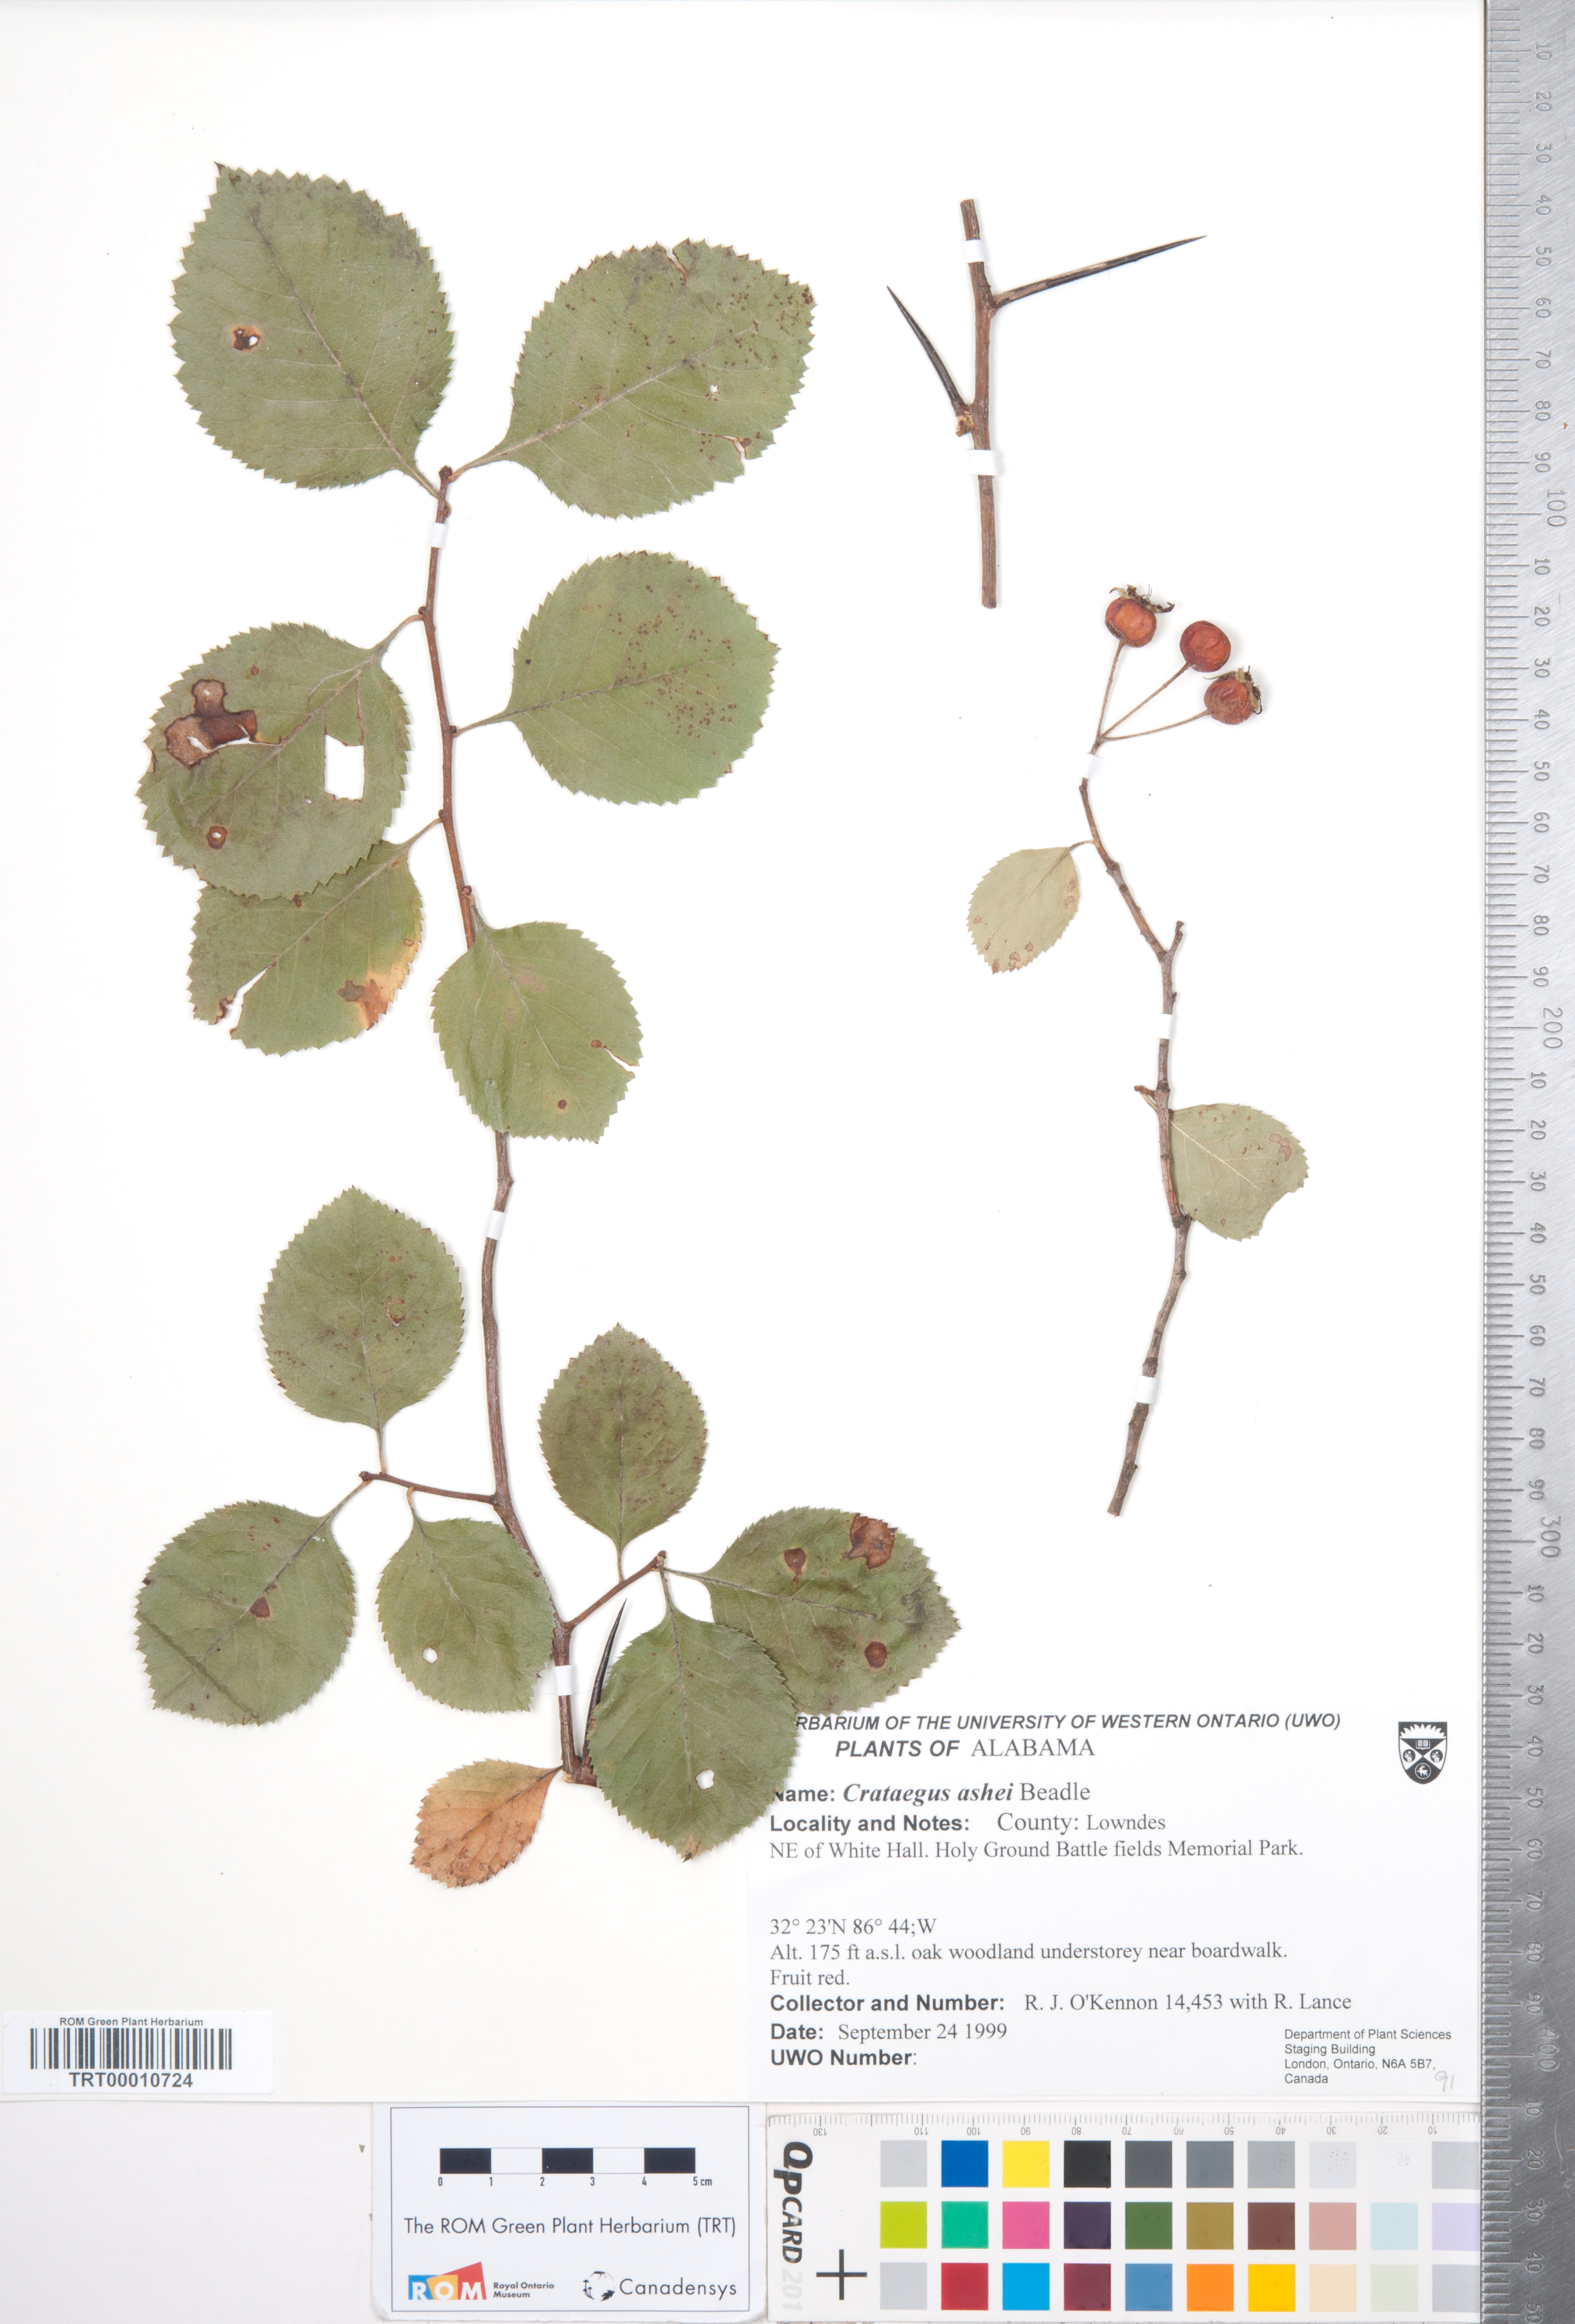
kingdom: Plantae
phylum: Tracheophyta
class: Magnoliopsida
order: Rosales
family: Rosaceae
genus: Crataegus
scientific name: Crataegus ashei
